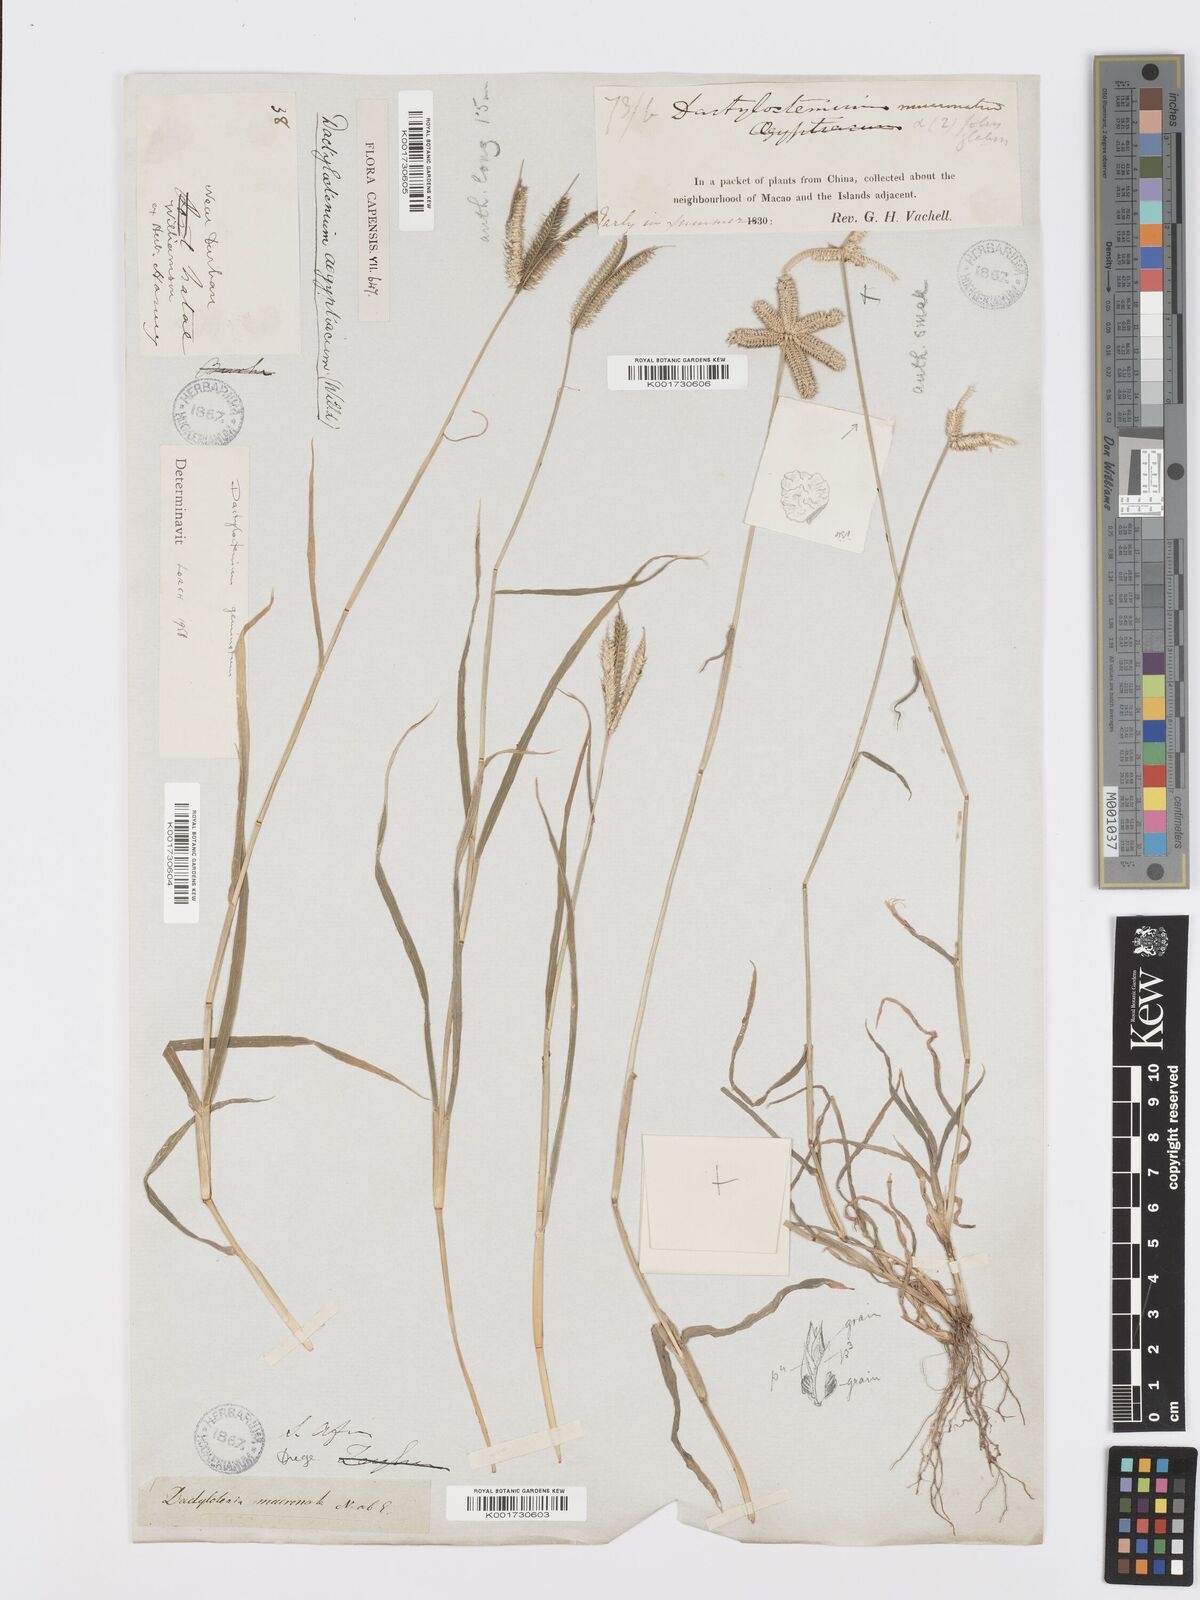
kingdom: Plantae
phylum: Tracheophyta
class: Liliopsida
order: Poales
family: Poaceae
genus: Dactyloctenium
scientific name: Dactyloctenium giganteum
